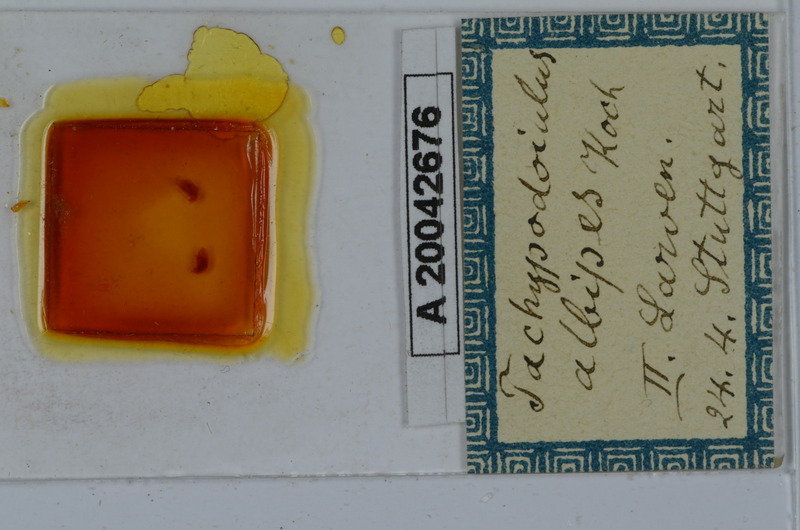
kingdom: Animalia
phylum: Arthropoda
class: Diplopoda
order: Julida
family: Julidae
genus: Tachypodoiulus
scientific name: Tachypodoiulus niger
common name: White-legged snake millipede
